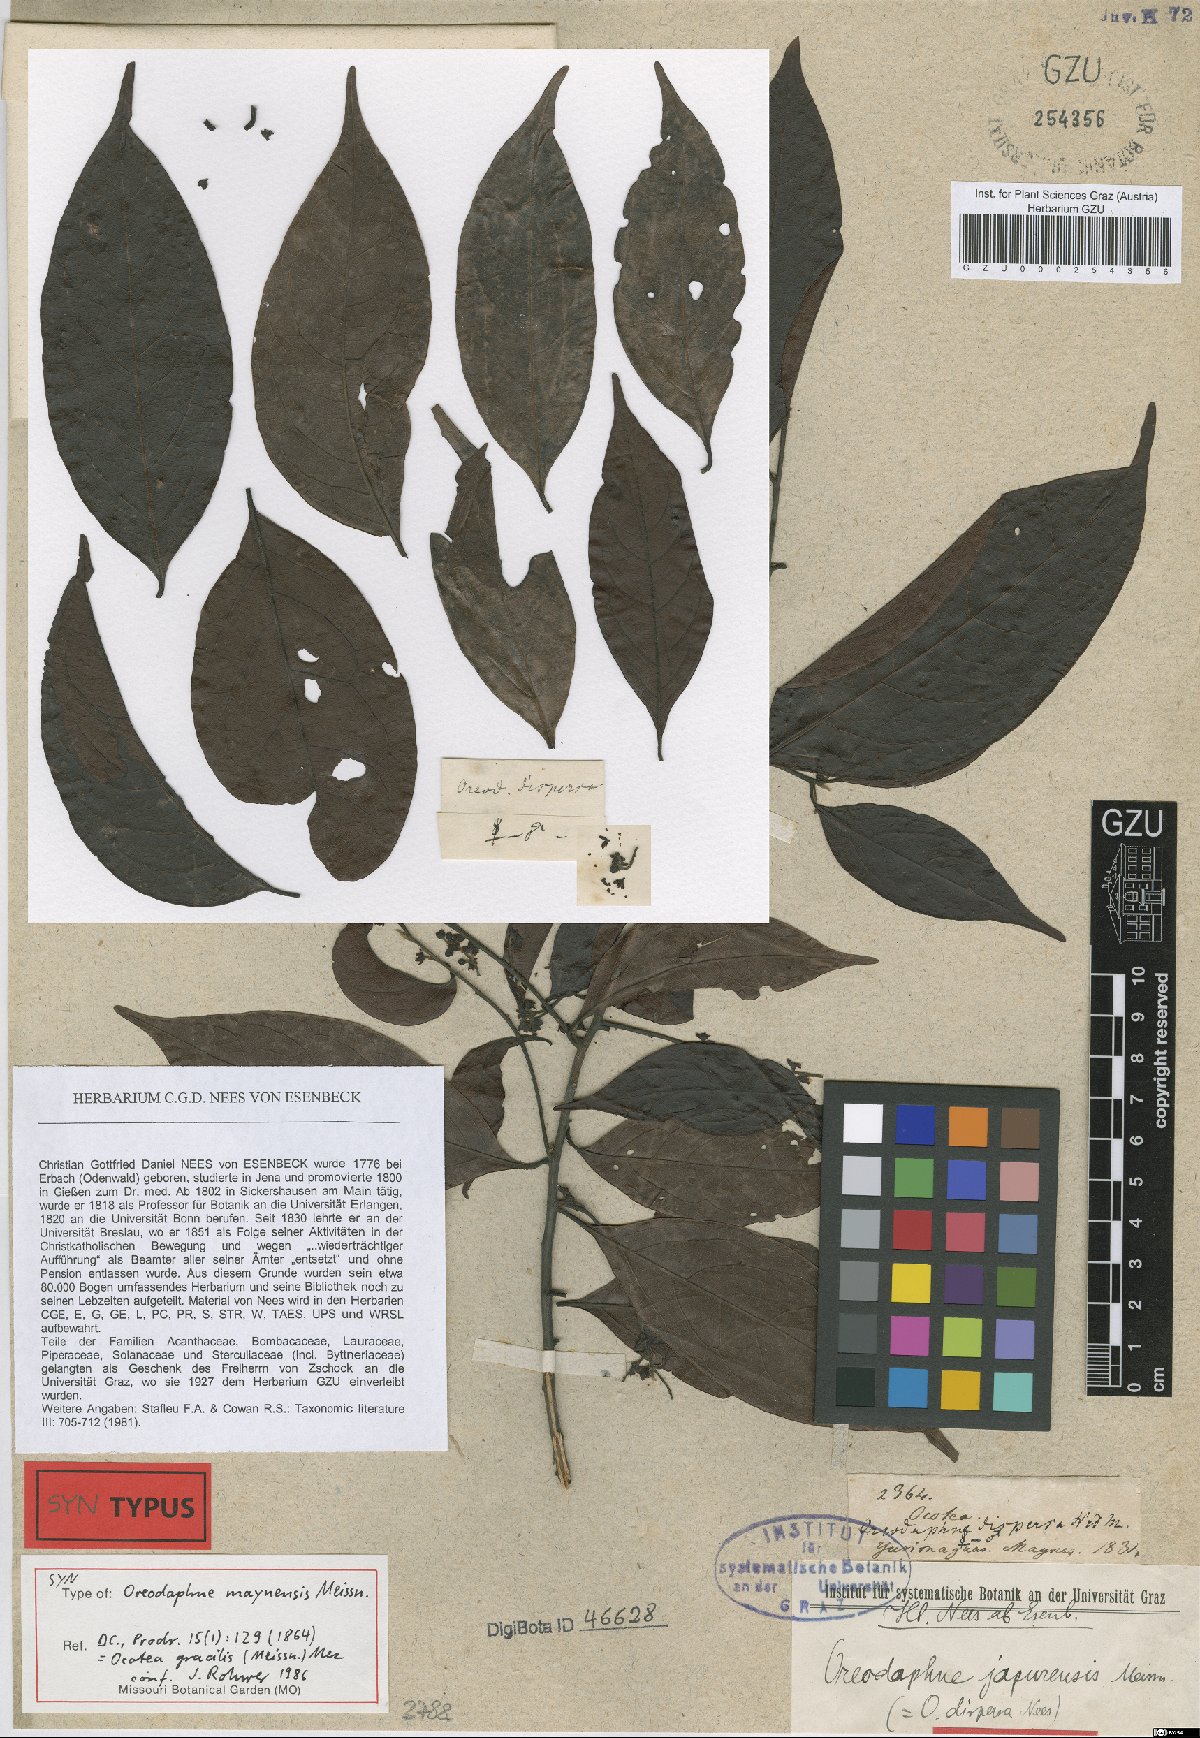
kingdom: Plantae
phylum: Tracheophyta
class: Magnoliopsida
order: Laurales
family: Lauraceae
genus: Ocotea
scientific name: Ocotea gracilis
